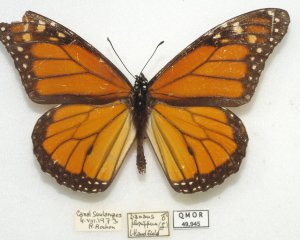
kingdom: Animalia
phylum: Arthropoda
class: Insecta
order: Lepidoptera
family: Nymphalidae
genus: Danaus
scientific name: Danaus plexippus
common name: Monarch
